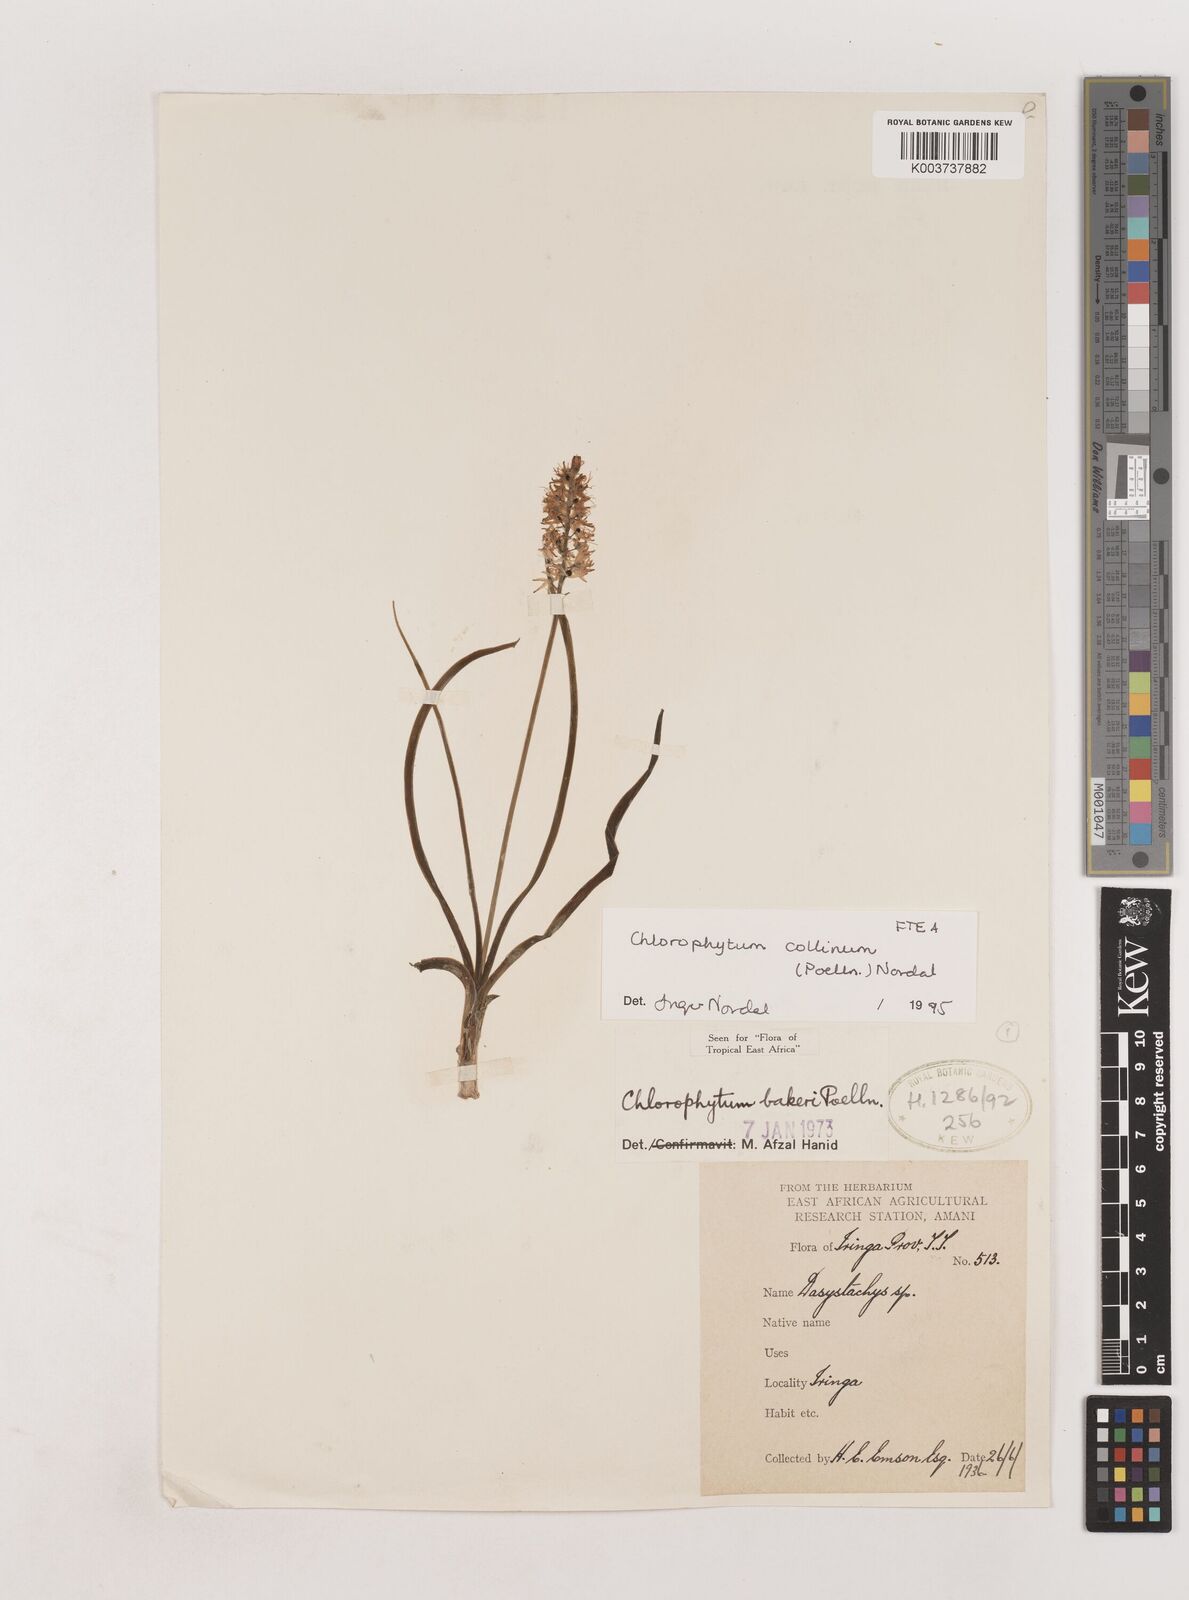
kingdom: Plantae
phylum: Tracheophyta
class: Liliopsida
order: Asparagales
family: Asparagaceae
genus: Chlorophytum
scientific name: Chlorophytum collinum
